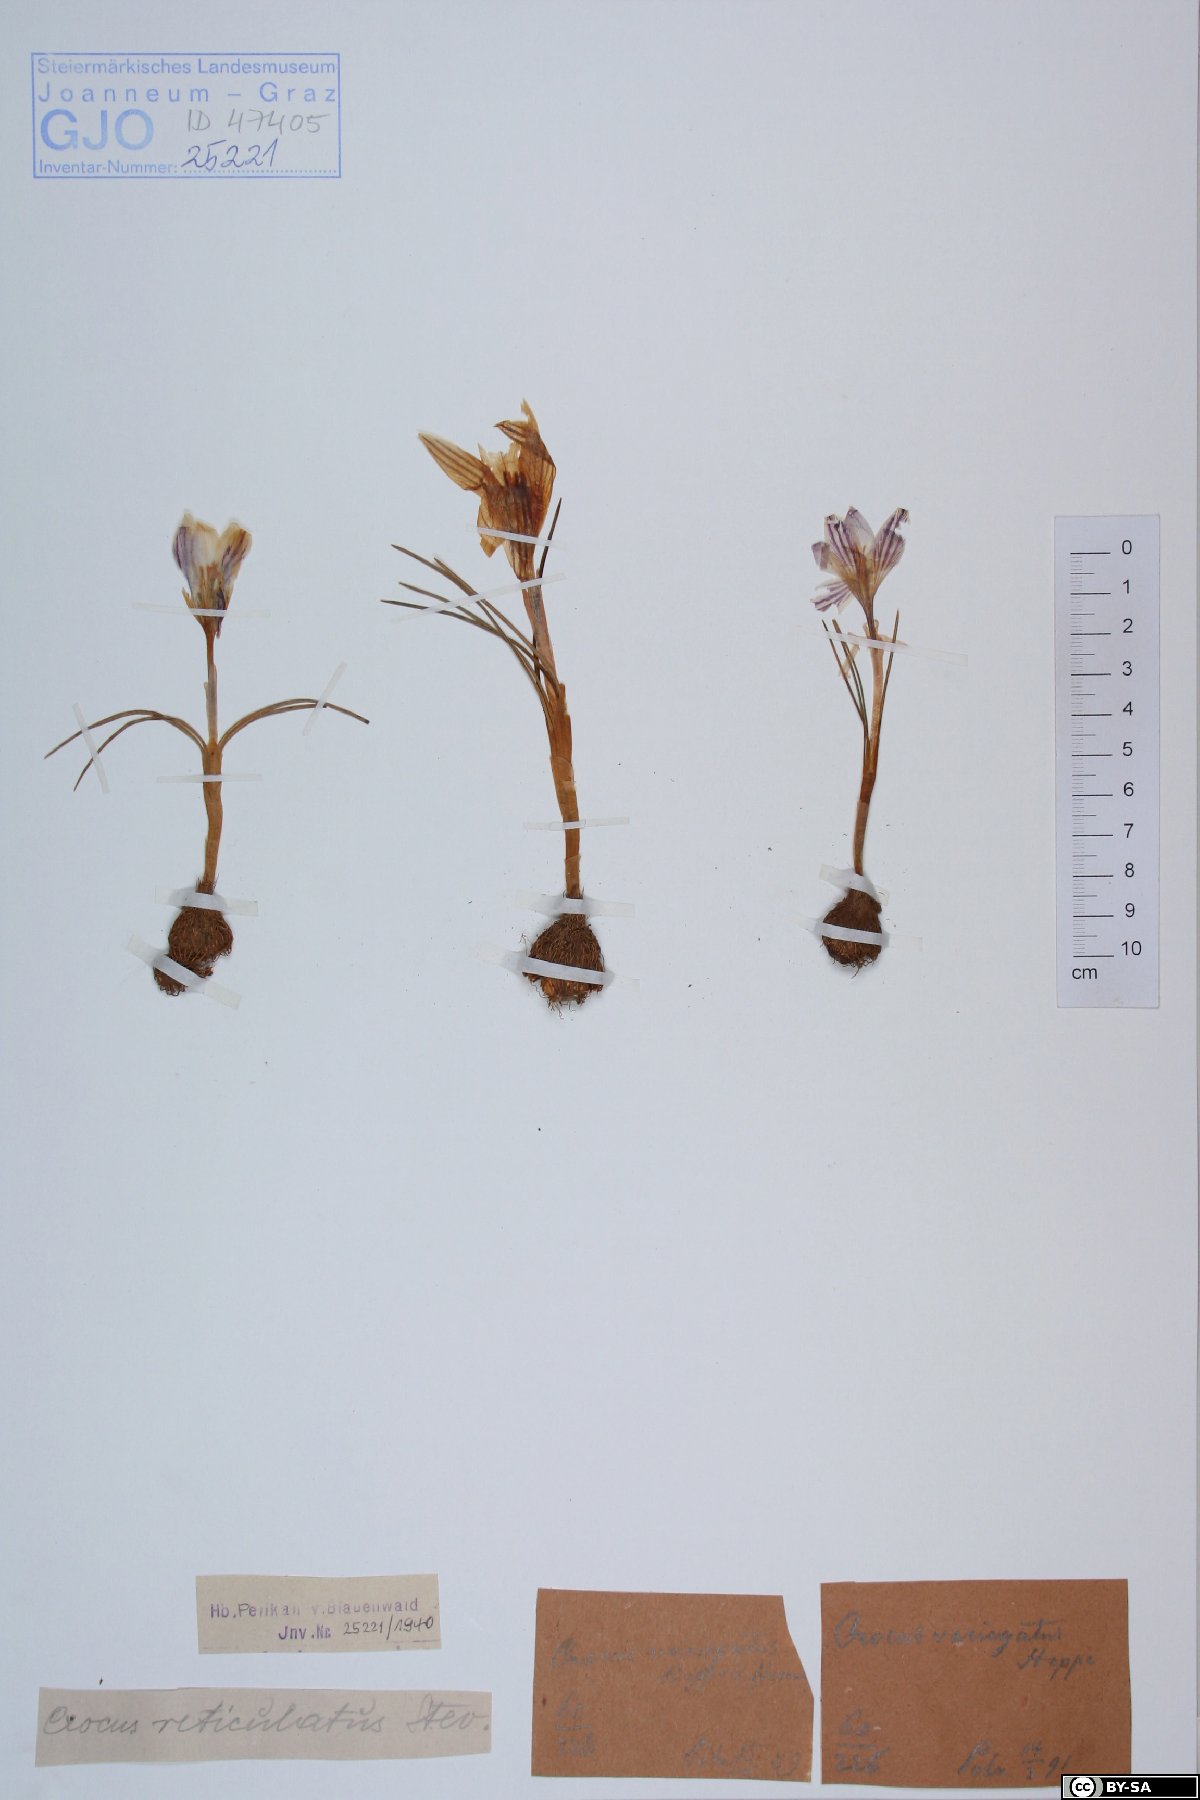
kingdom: Plantae
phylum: Tracheophyta
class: Liliopsida
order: Asparagales
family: Iridaceae
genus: Crocus
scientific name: Crocus variegatus
